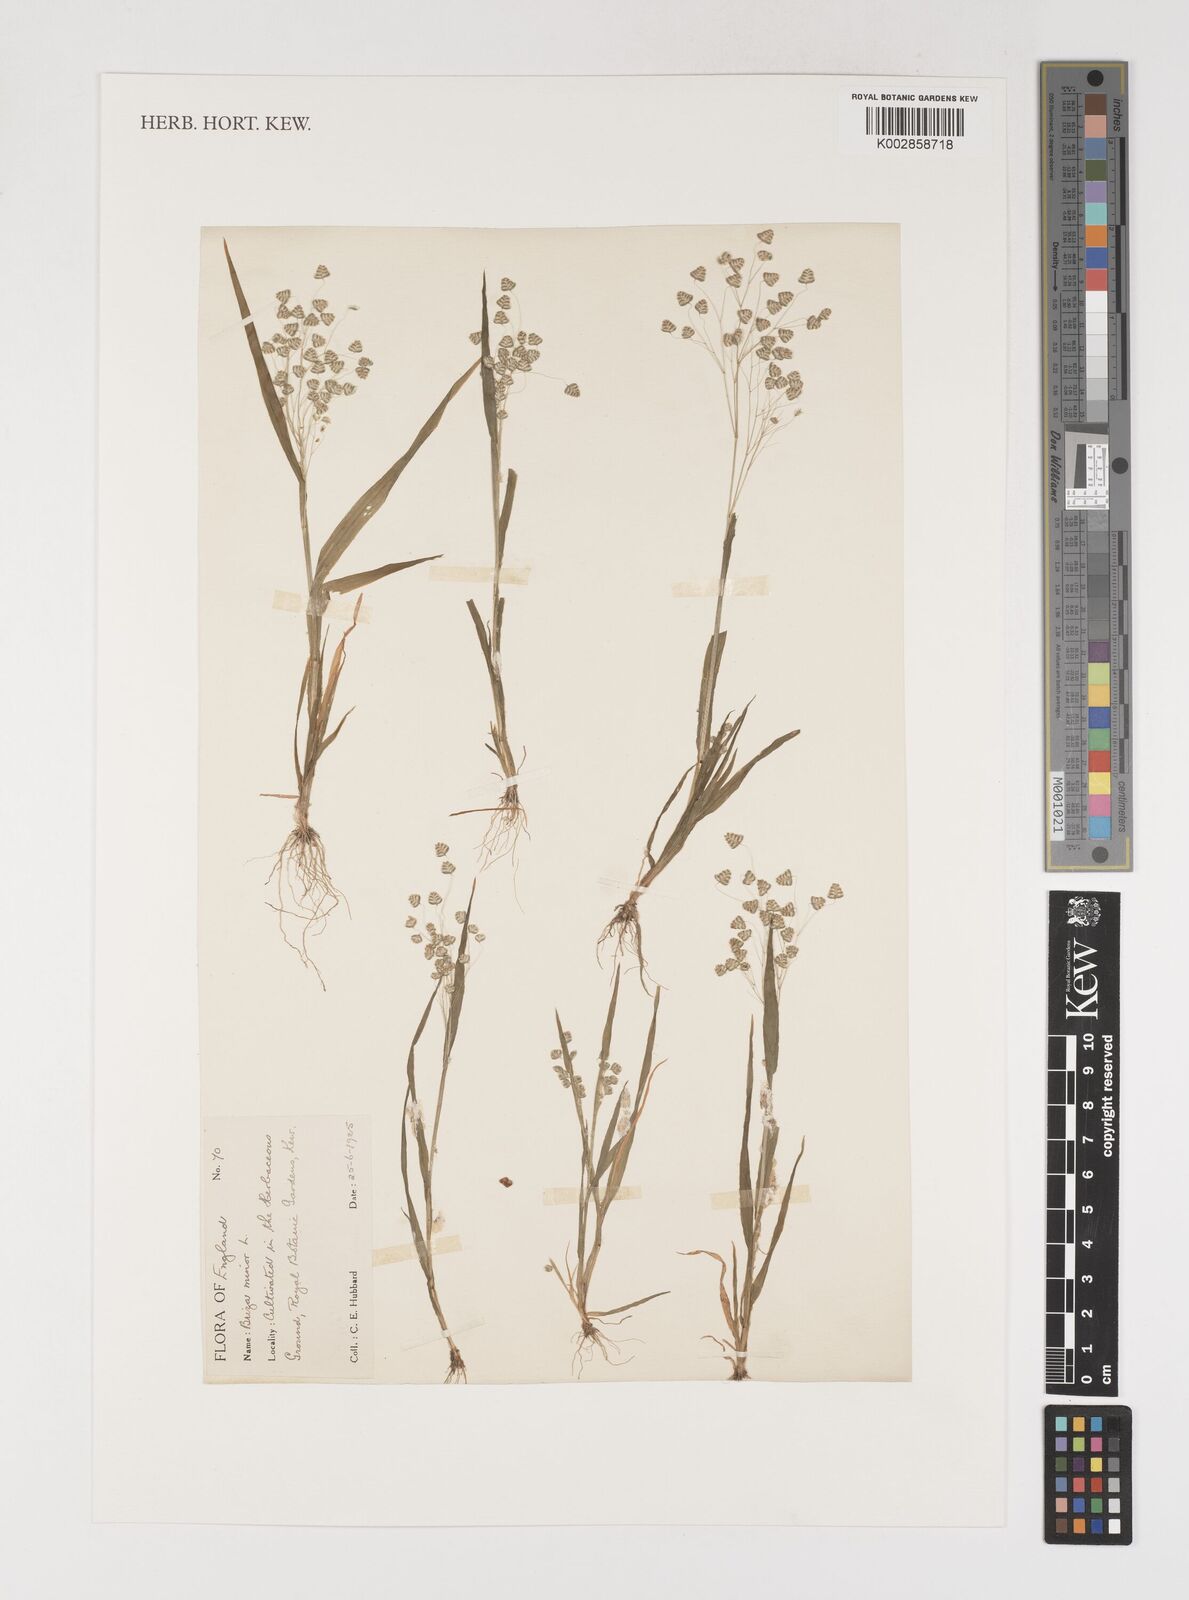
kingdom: Plantae
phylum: Tracheophyta
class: Liliopsida
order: Poales
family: Poaceae
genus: Briza
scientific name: Briza minor
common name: Lesser quaking-grass
